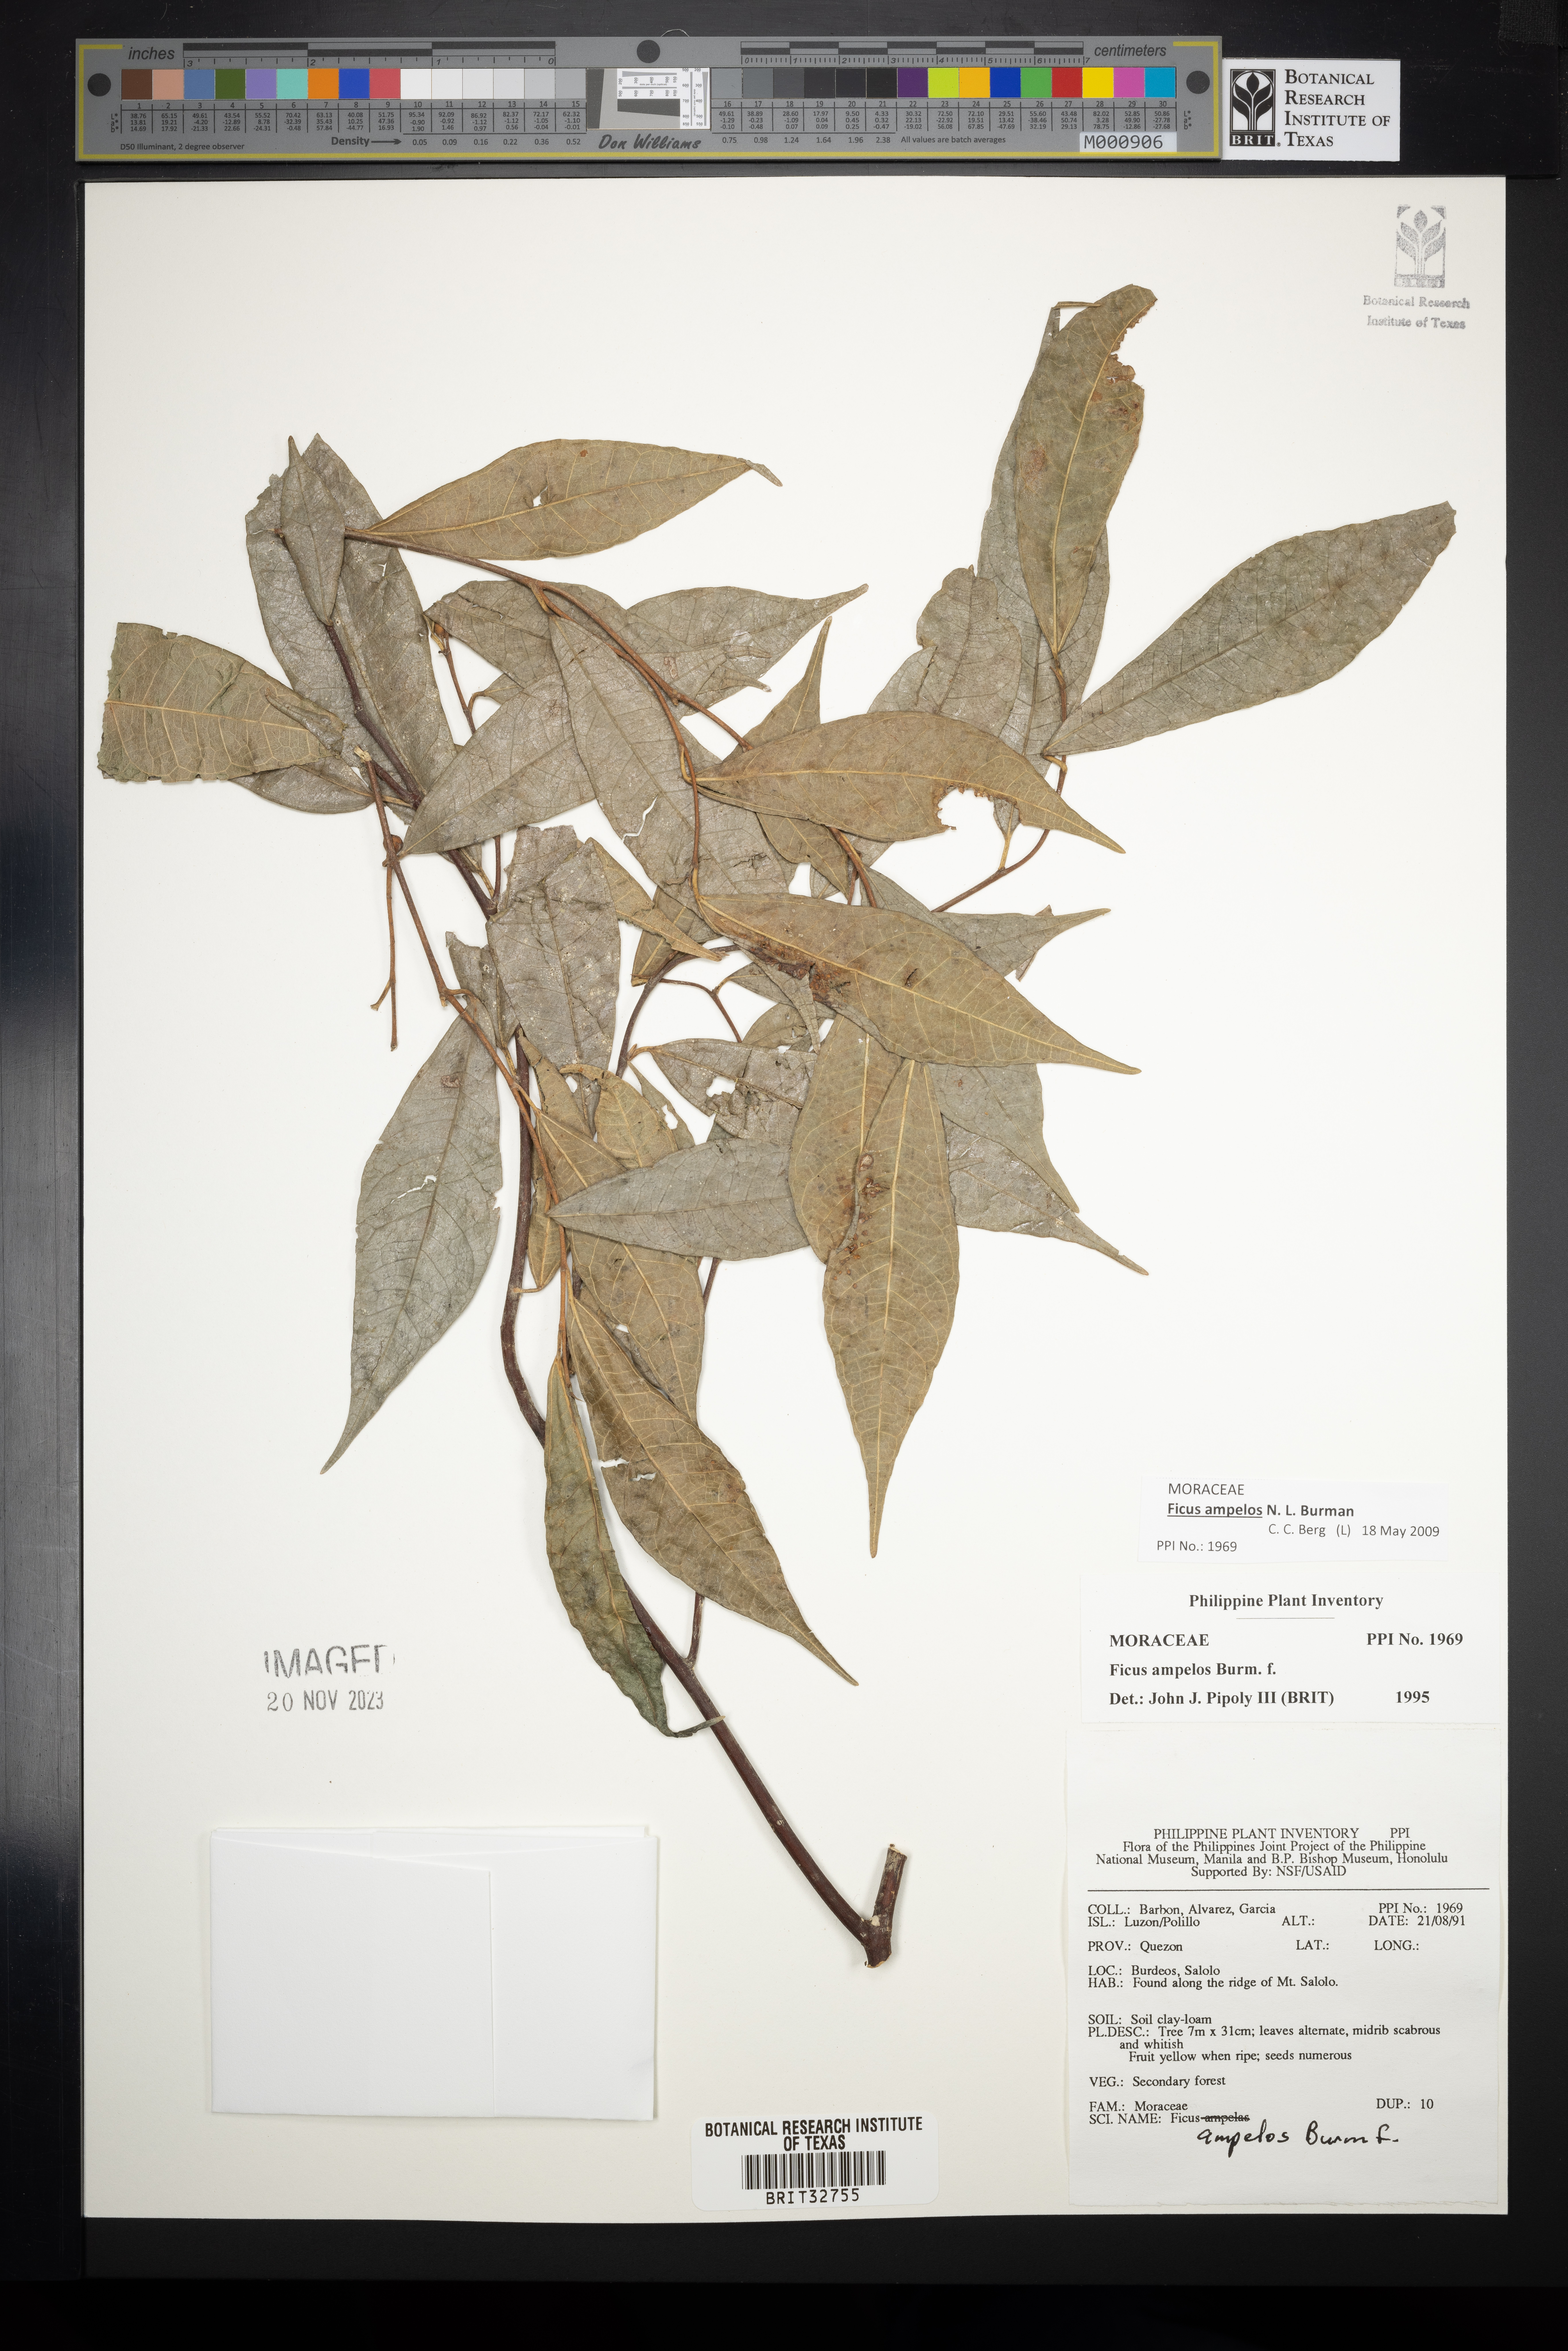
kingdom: Plantae
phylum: Tracheophyta
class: Magnoliopsida
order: Rosales
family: Moraceae
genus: Ficus
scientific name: Ficus ampelos
